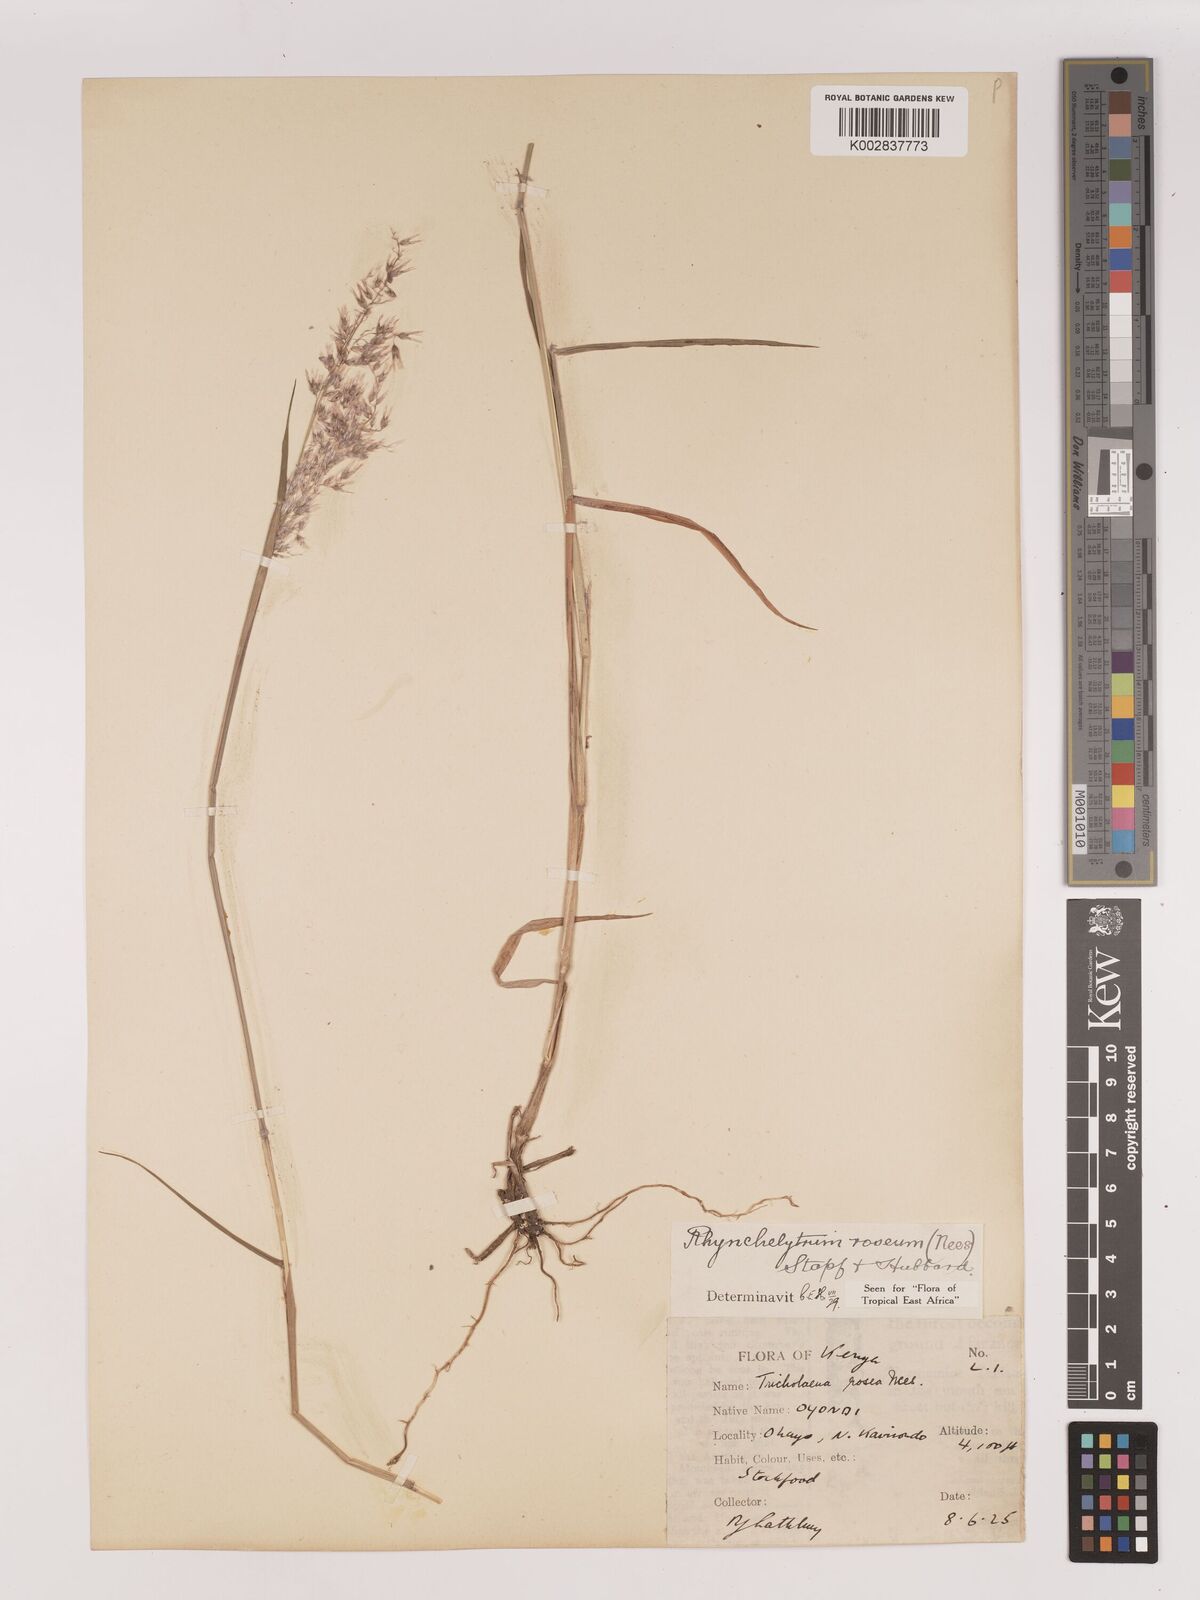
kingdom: Plantae
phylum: Tracheophyta
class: Liliopsida
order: Poales
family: Poaceae
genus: Melinis
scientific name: Melinis repens
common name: Rose natal grass
